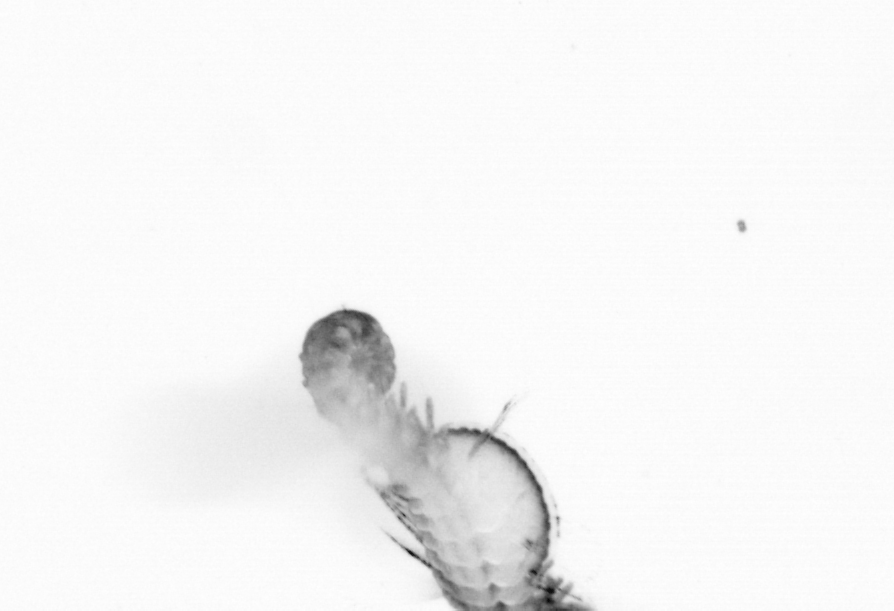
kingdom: Animalia
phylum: Annelida
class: Polychaeta
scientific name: Polychaeta
